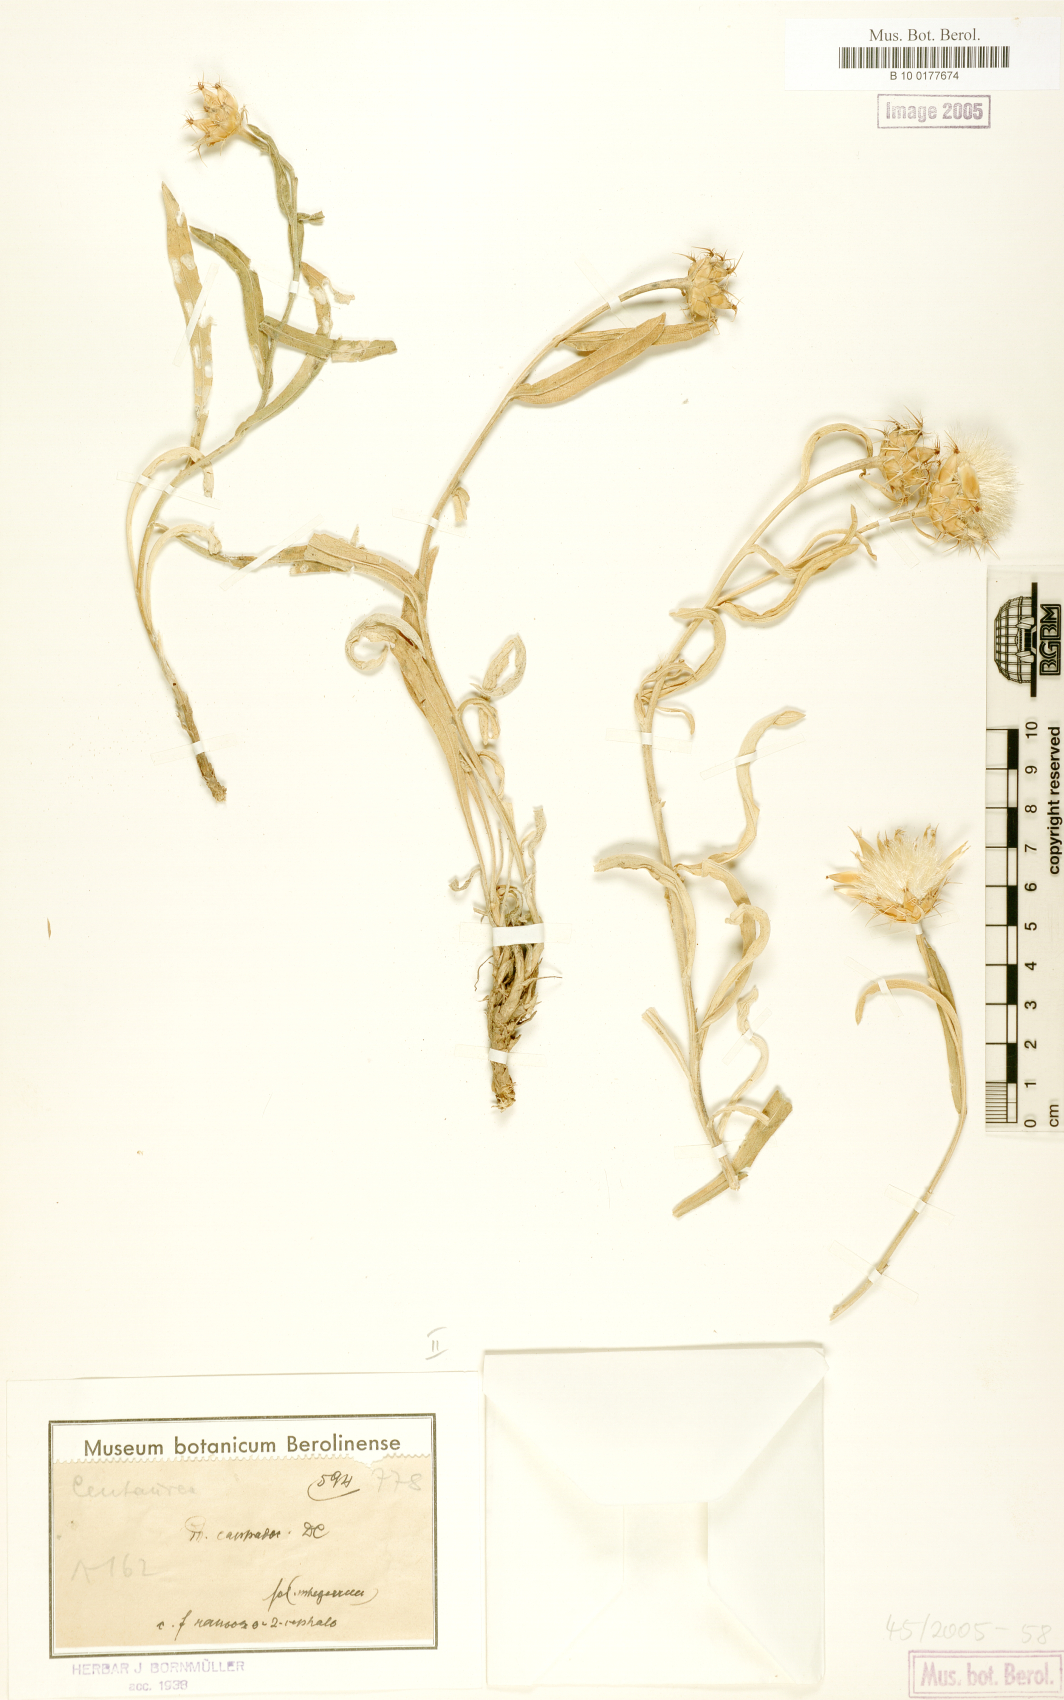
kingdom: Plantae
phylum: Tracheophyta
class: Magnoliopsida
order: Asterales
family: Asteraceae
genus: Centaurea
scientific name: Centaurea drabifolia
